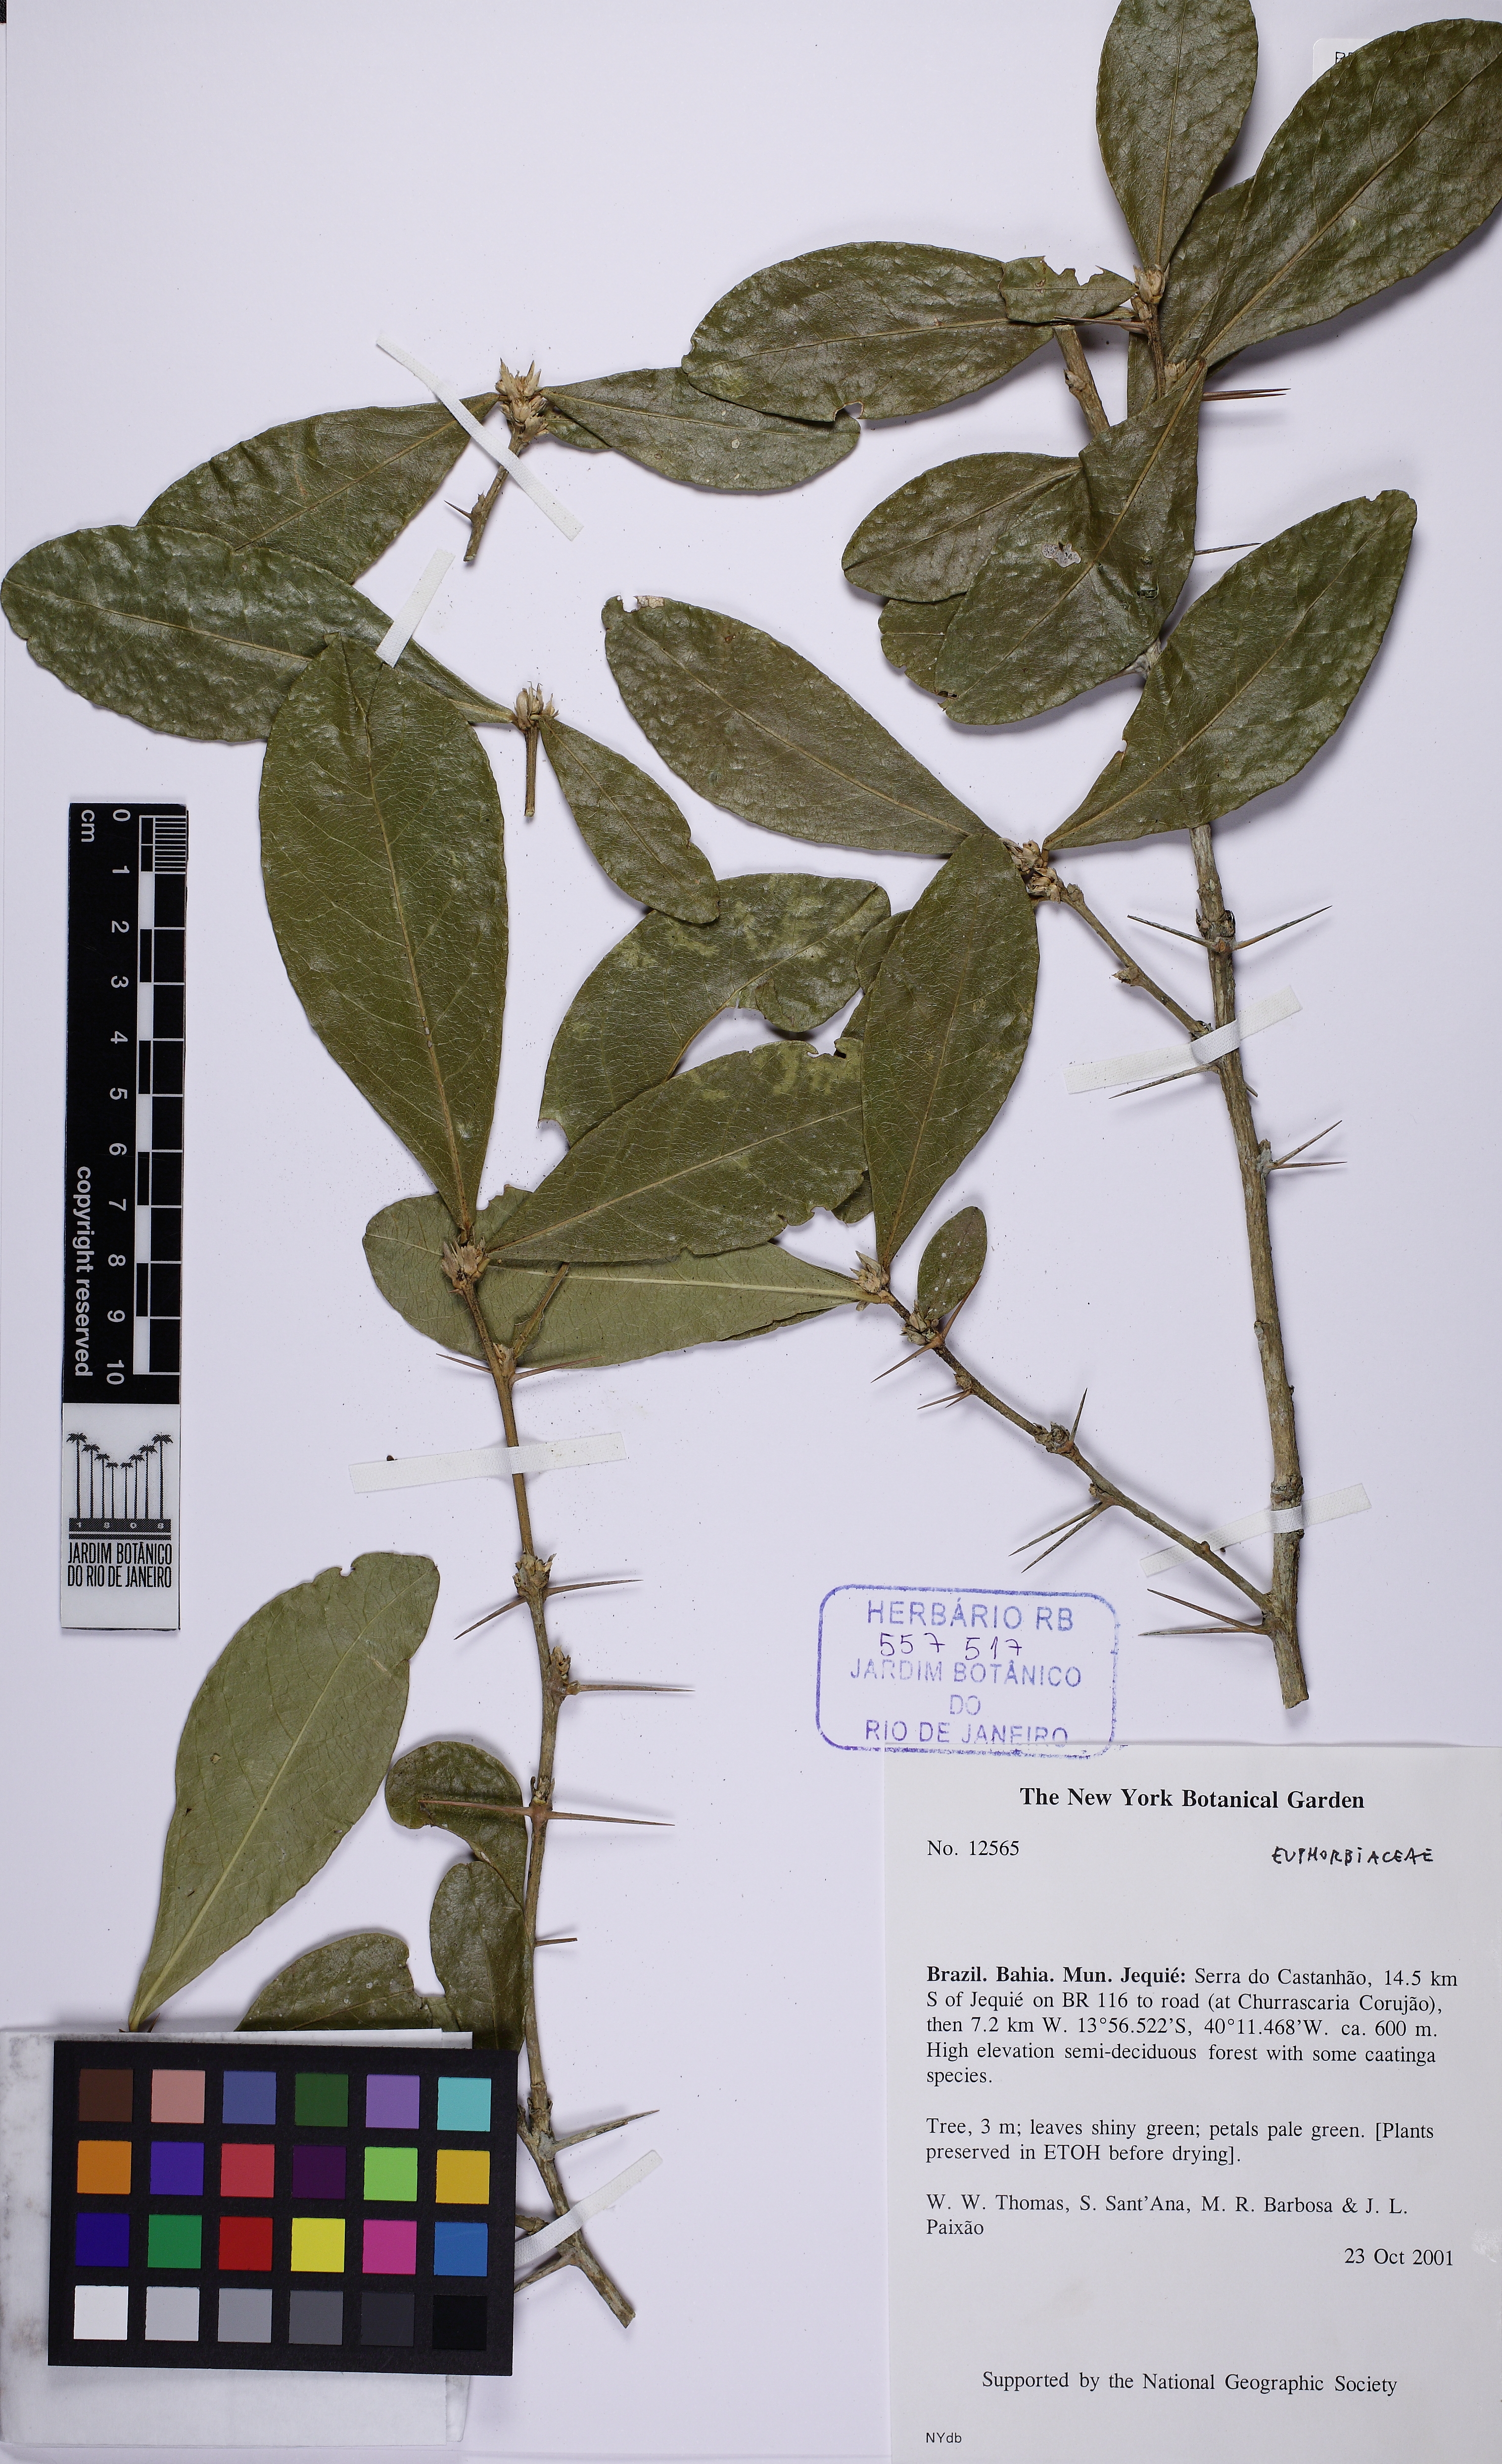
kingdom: Plantae
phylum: Tracheophyta
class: Magnoliopsida
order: Malpighiales
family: Euphorbiaceae
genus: Philyra
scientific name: Philyra brasiliensis
